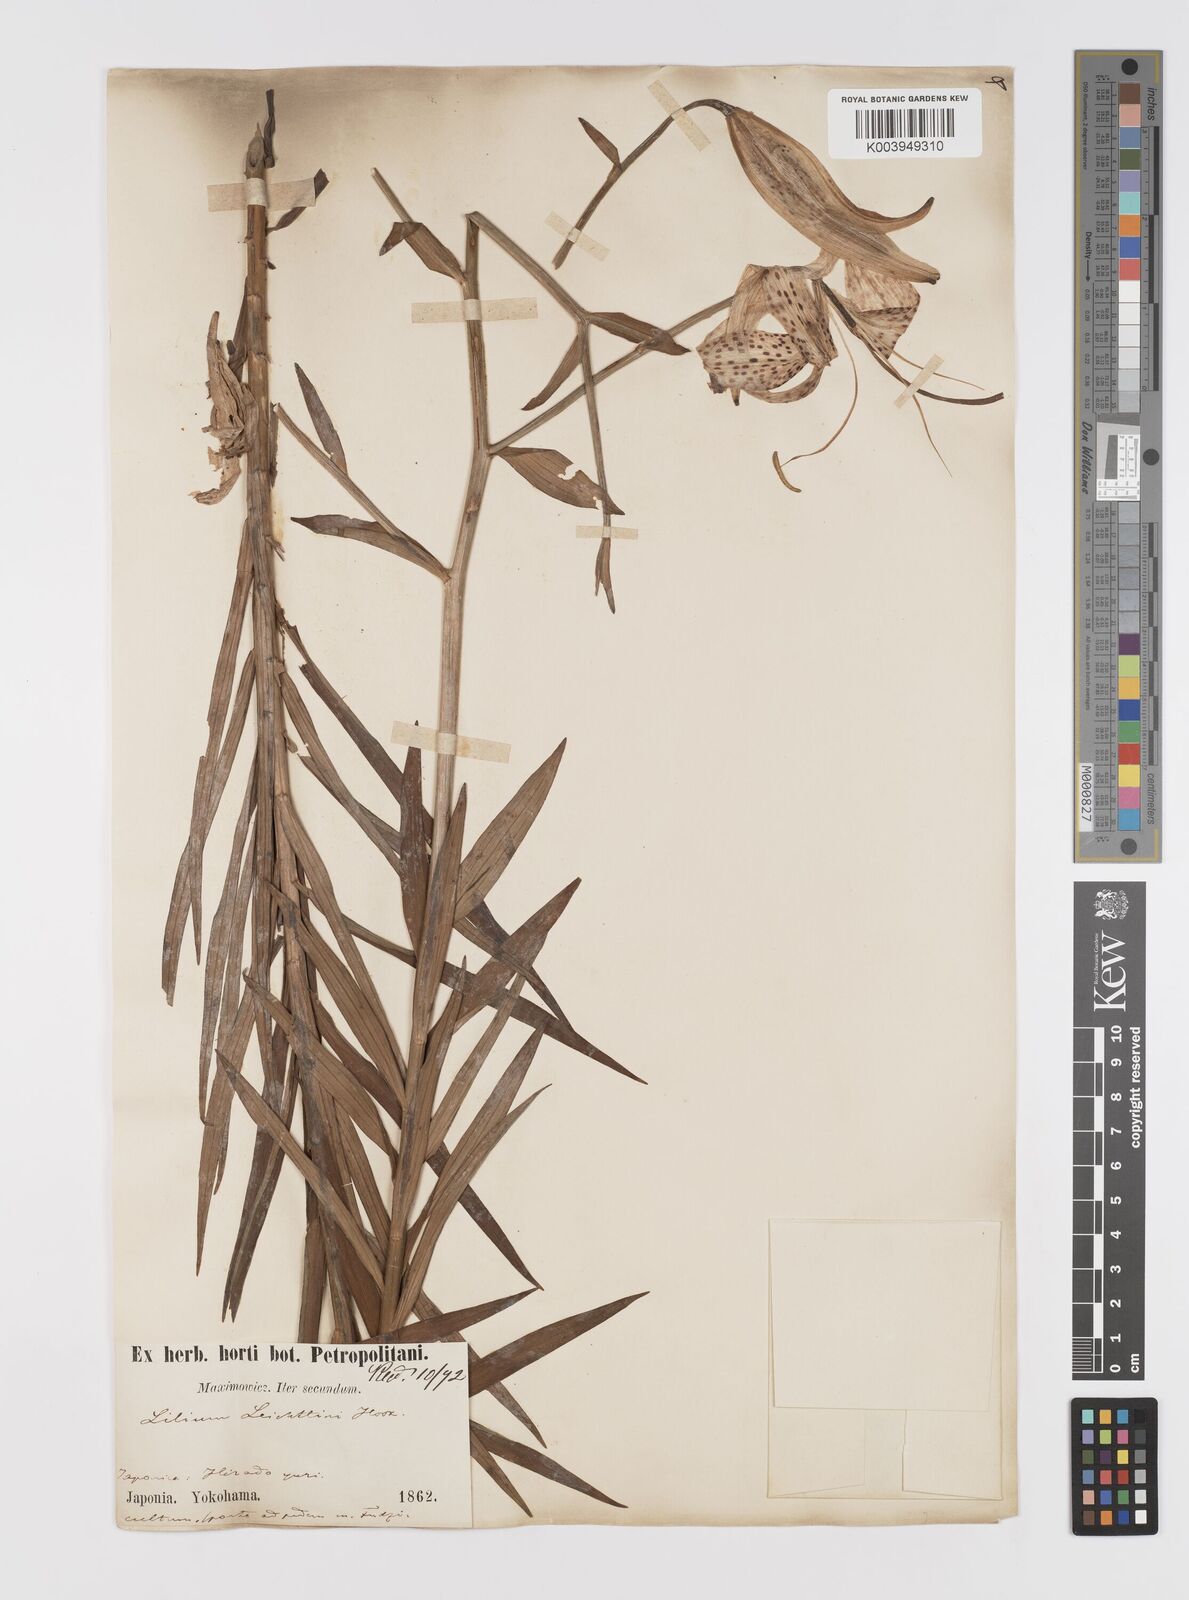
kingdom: Plantae
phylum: Tracheophyta
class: Liliopsida
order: Liliales
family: Liliaceae
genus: Lilium
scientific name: Lilium leichtlinii
